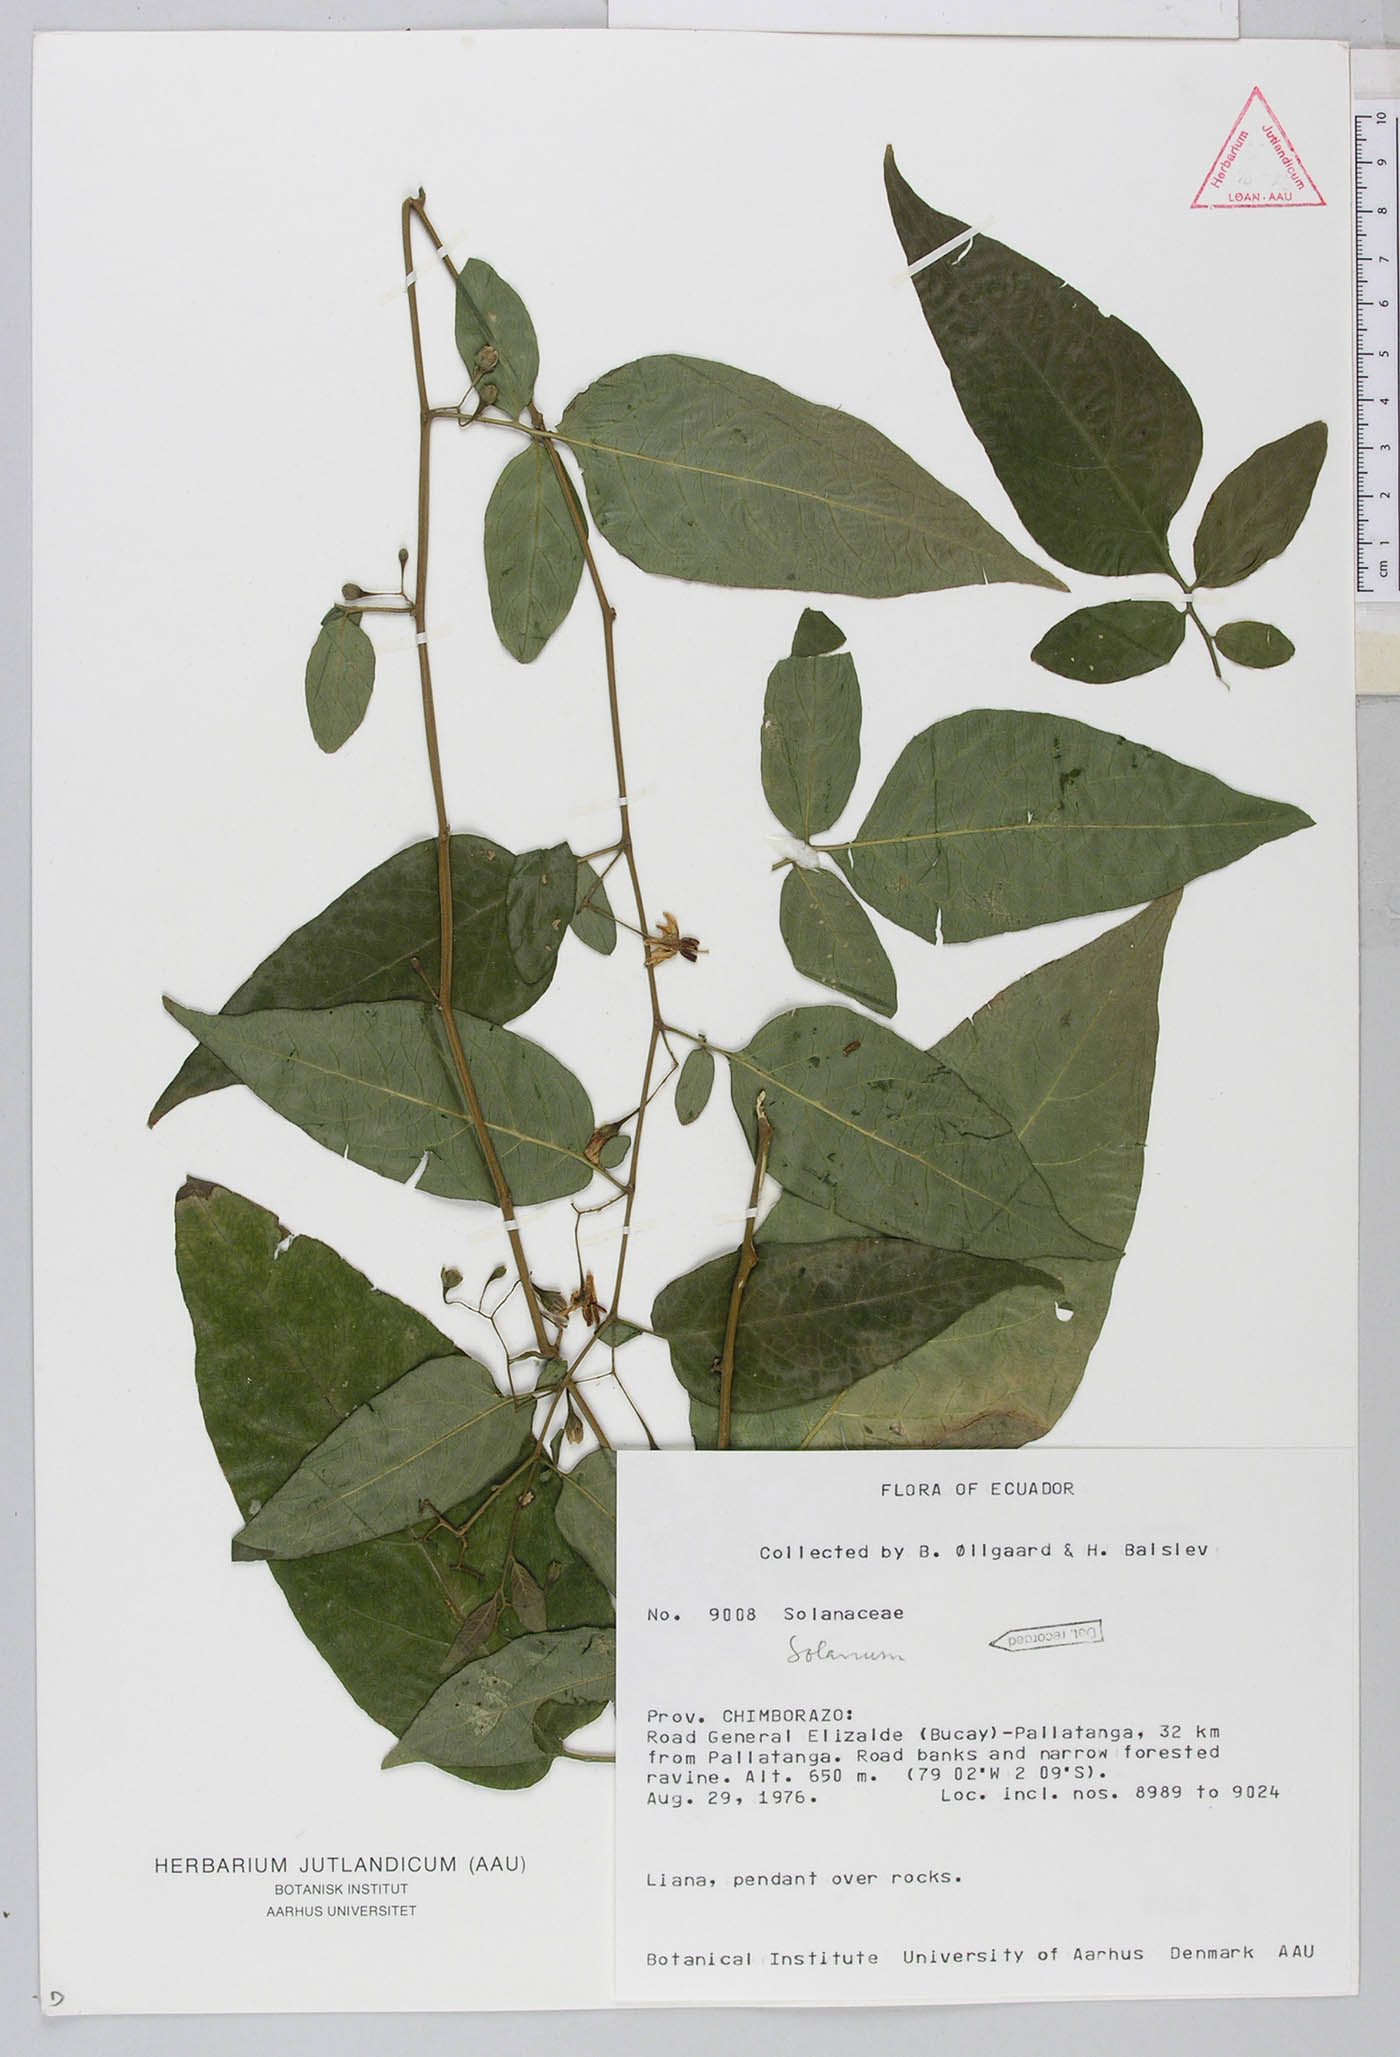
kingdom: Plantae
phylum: Tracheophyta
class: Magnoliopsida
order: Solanales
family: Solanaceae
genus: Solanum
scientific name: Solanum tabanoense
